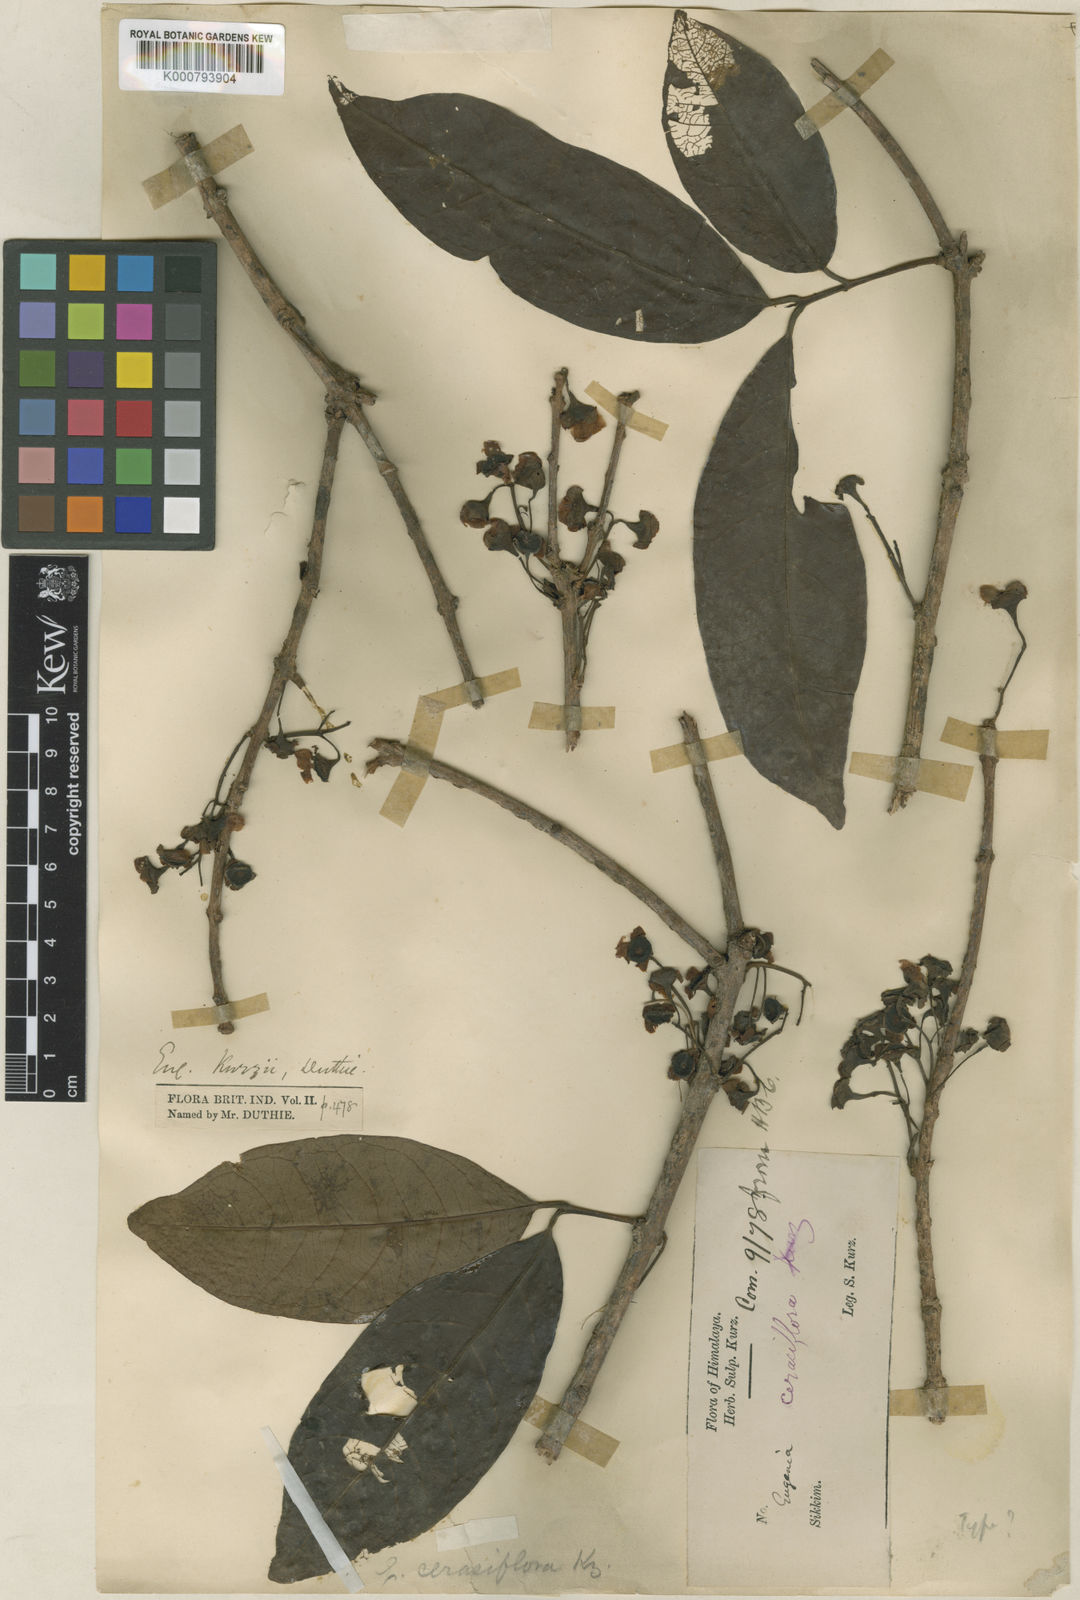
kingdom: Plantae
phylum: Tracheophyta
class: Magnoliopsida
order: Myrtales
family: Myrtaceae
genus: Syzygium
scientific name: Syzygium kurzii
